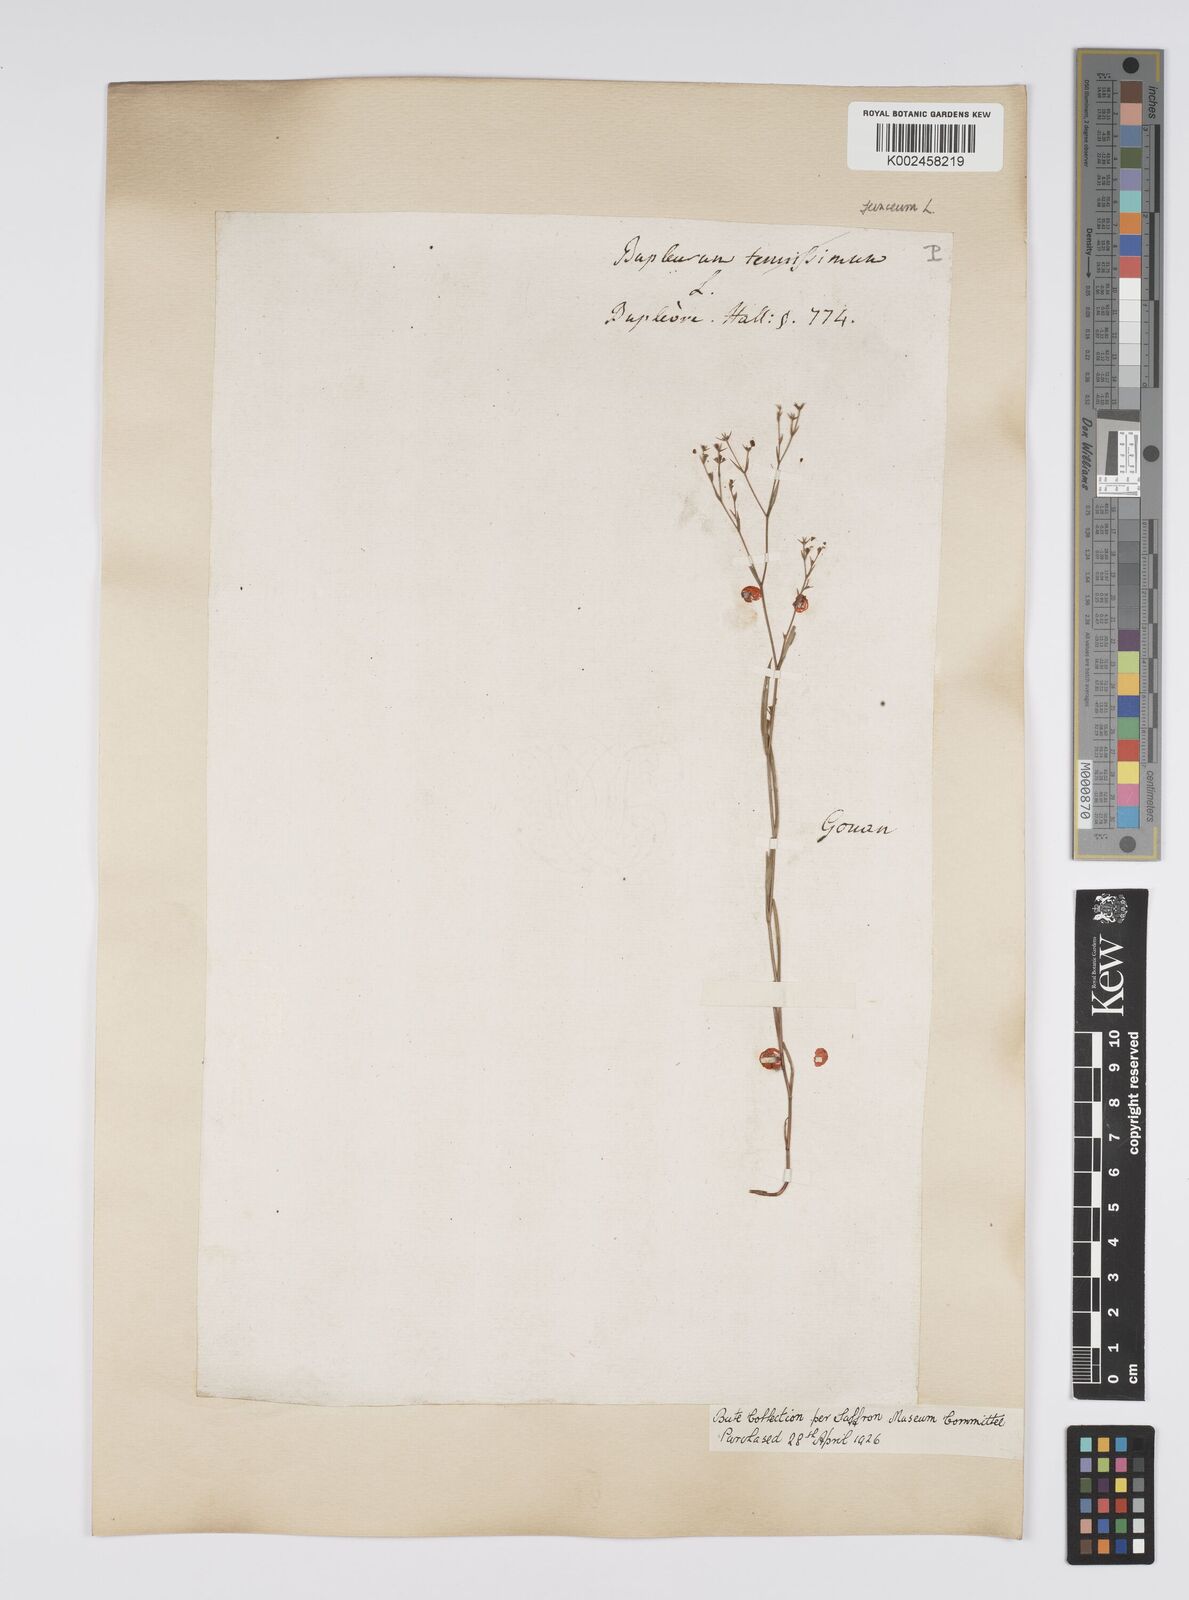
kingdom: Plantae
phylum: Tracheophyta
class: Magnoliopsida
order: Apiales
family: Apiaceae
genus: Bupleurum
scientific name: Bupleurum praealtum
